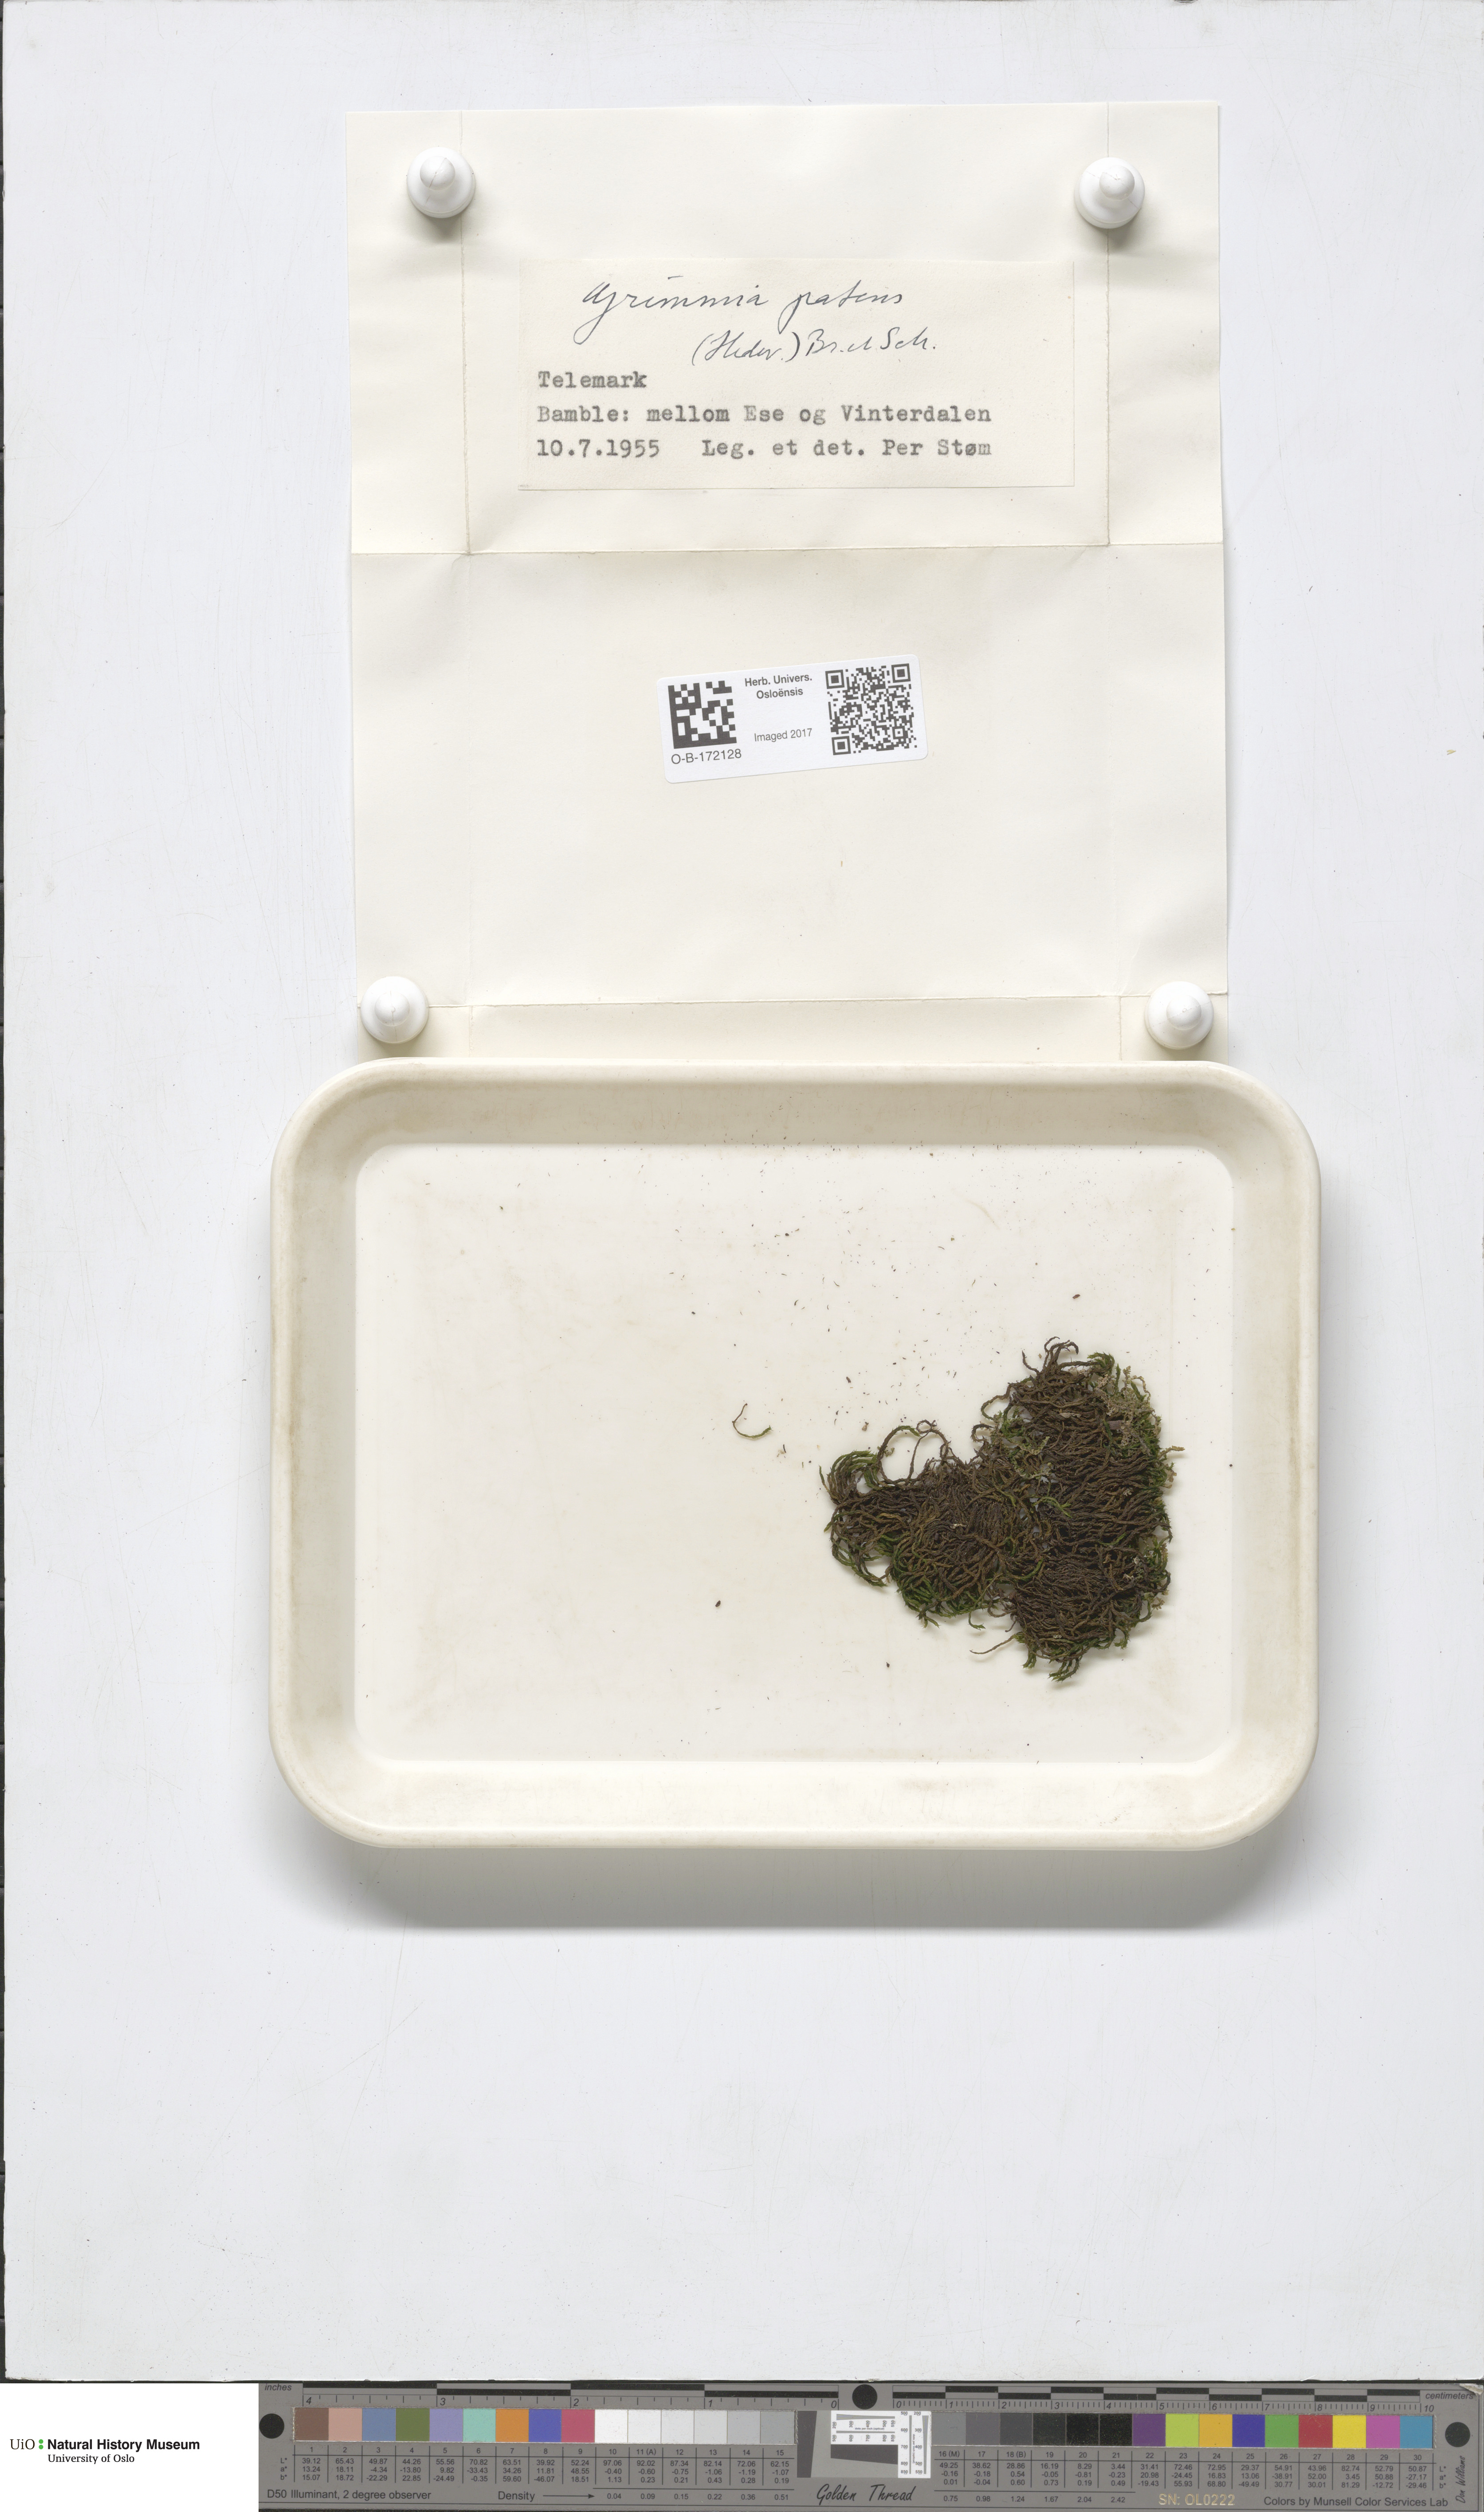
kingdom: Plantae
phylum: Bryophyta
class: Bryopsida
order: Grimmiales
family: Grimmiaceae
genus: Grimmia
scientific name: Grimmia ramondii
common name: Spreading-leaved grimmia
